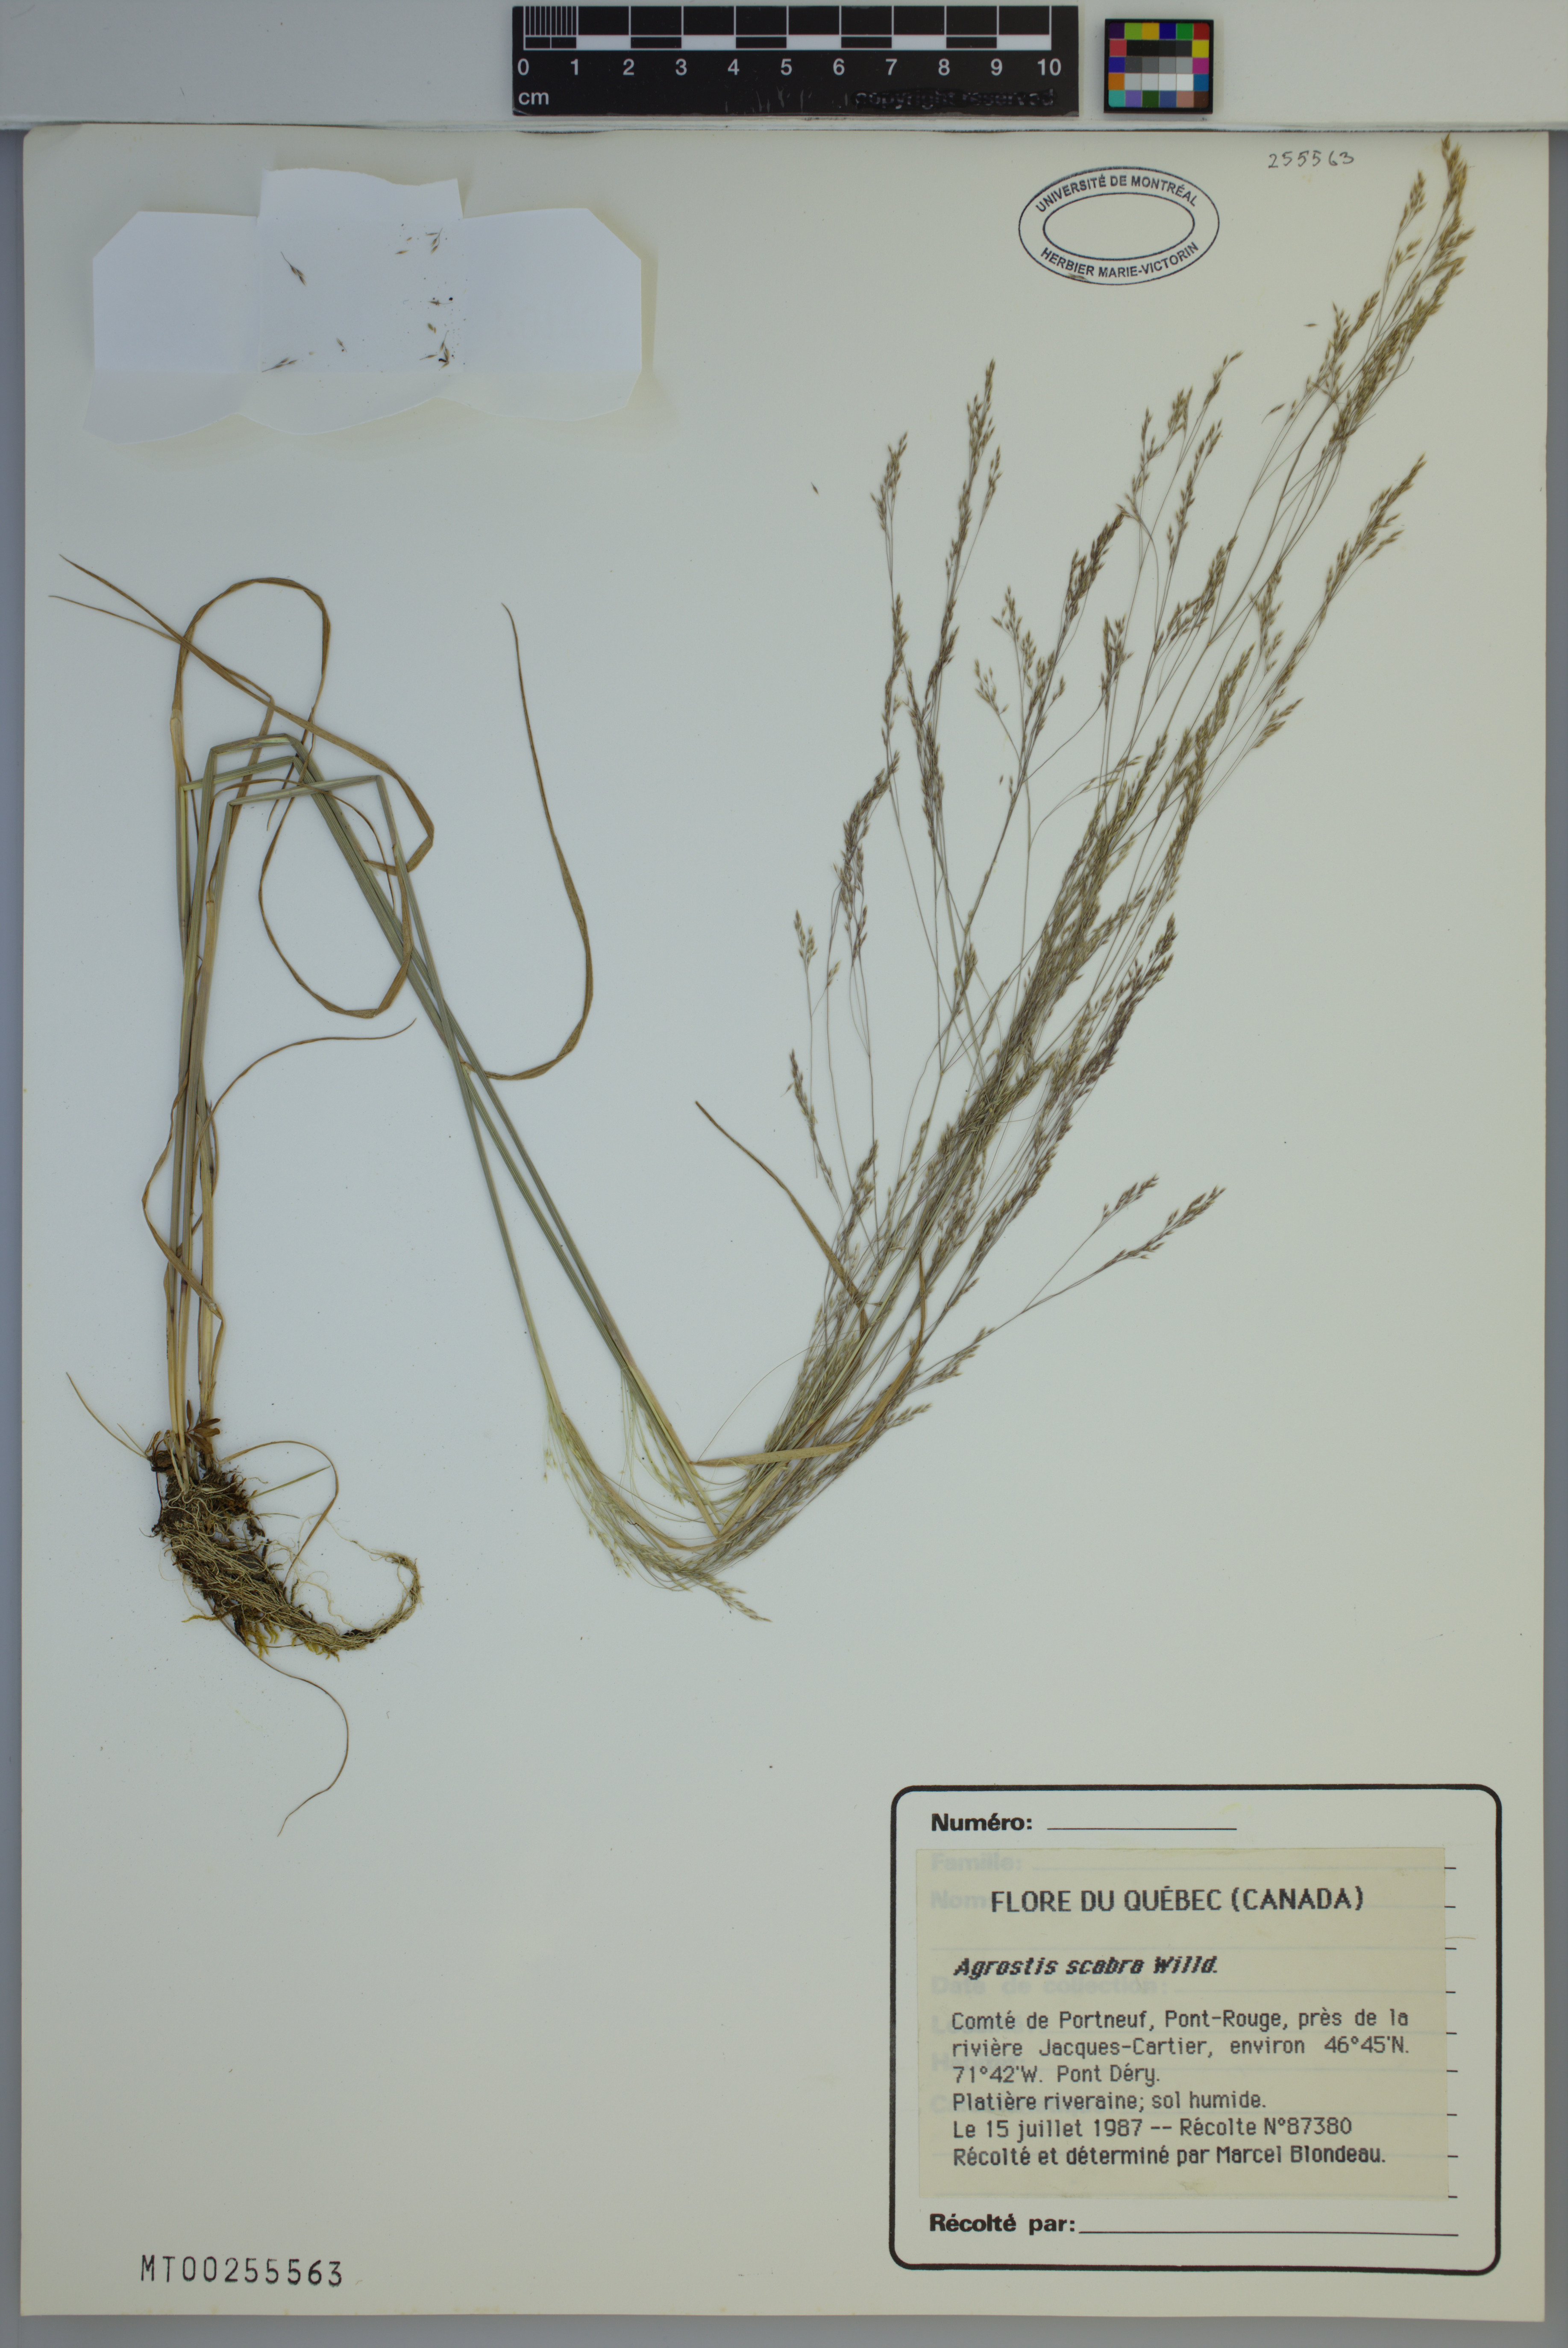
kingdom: Plantae
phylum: Tracheophyta
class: Liliopsida
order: Poales
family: Poaceae
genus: Agrostis
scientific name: Agrostis scabra
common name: Rough bent
